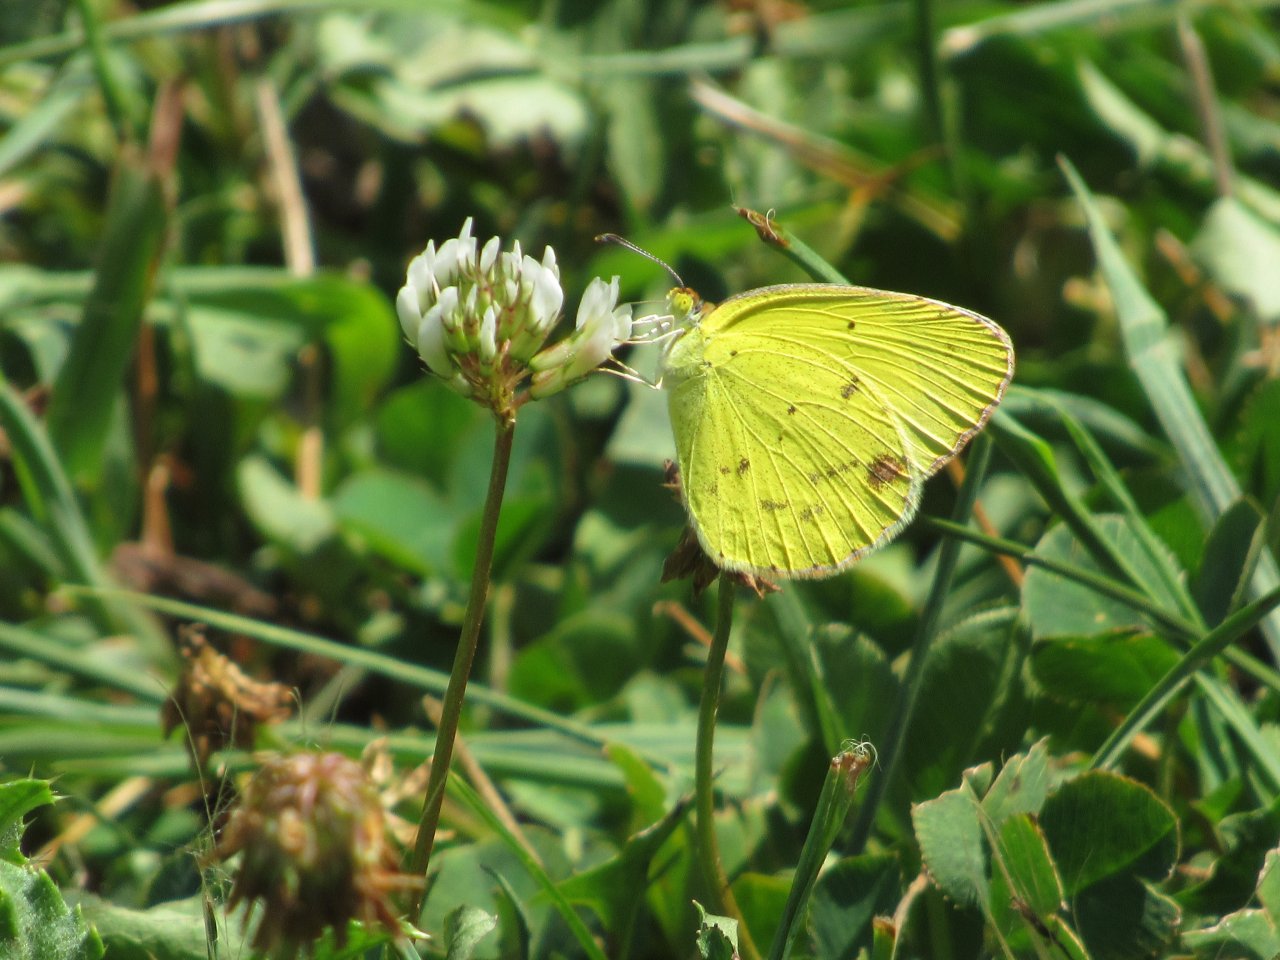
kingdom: Animalia
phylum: Arthropoda
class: Insecta
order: Lepidoptera
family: Pieridae
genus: Pyrisitia
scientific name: Pyrisitia lisa
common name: Little Yellow
